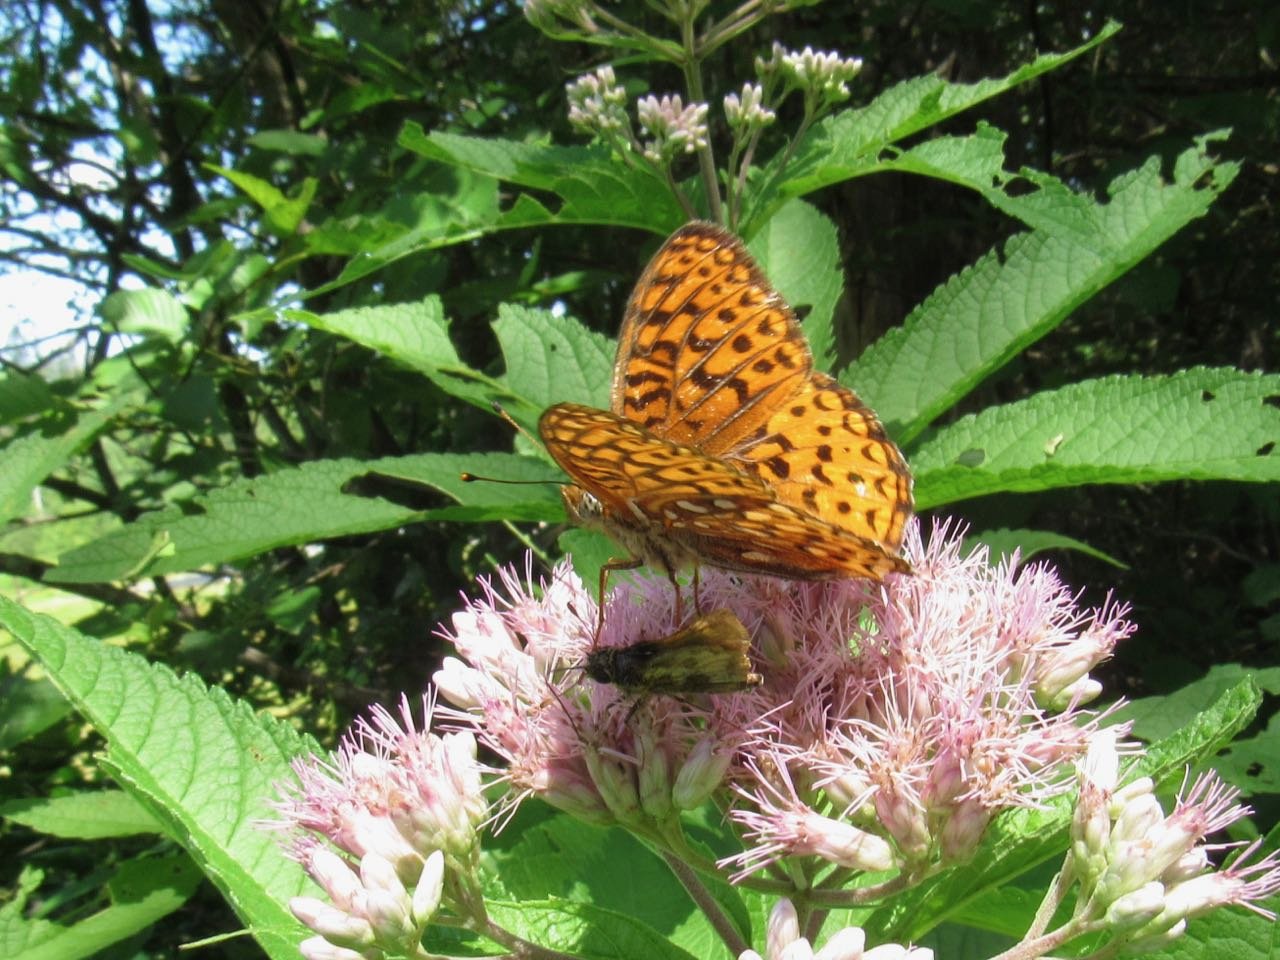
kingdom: Animalia
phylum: Arthropoda
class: Insecta
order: Lepidoptera
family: Nymphalidae
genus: Speyeria
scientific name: Speyeria atlantis
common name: Atlantis Fritillary
